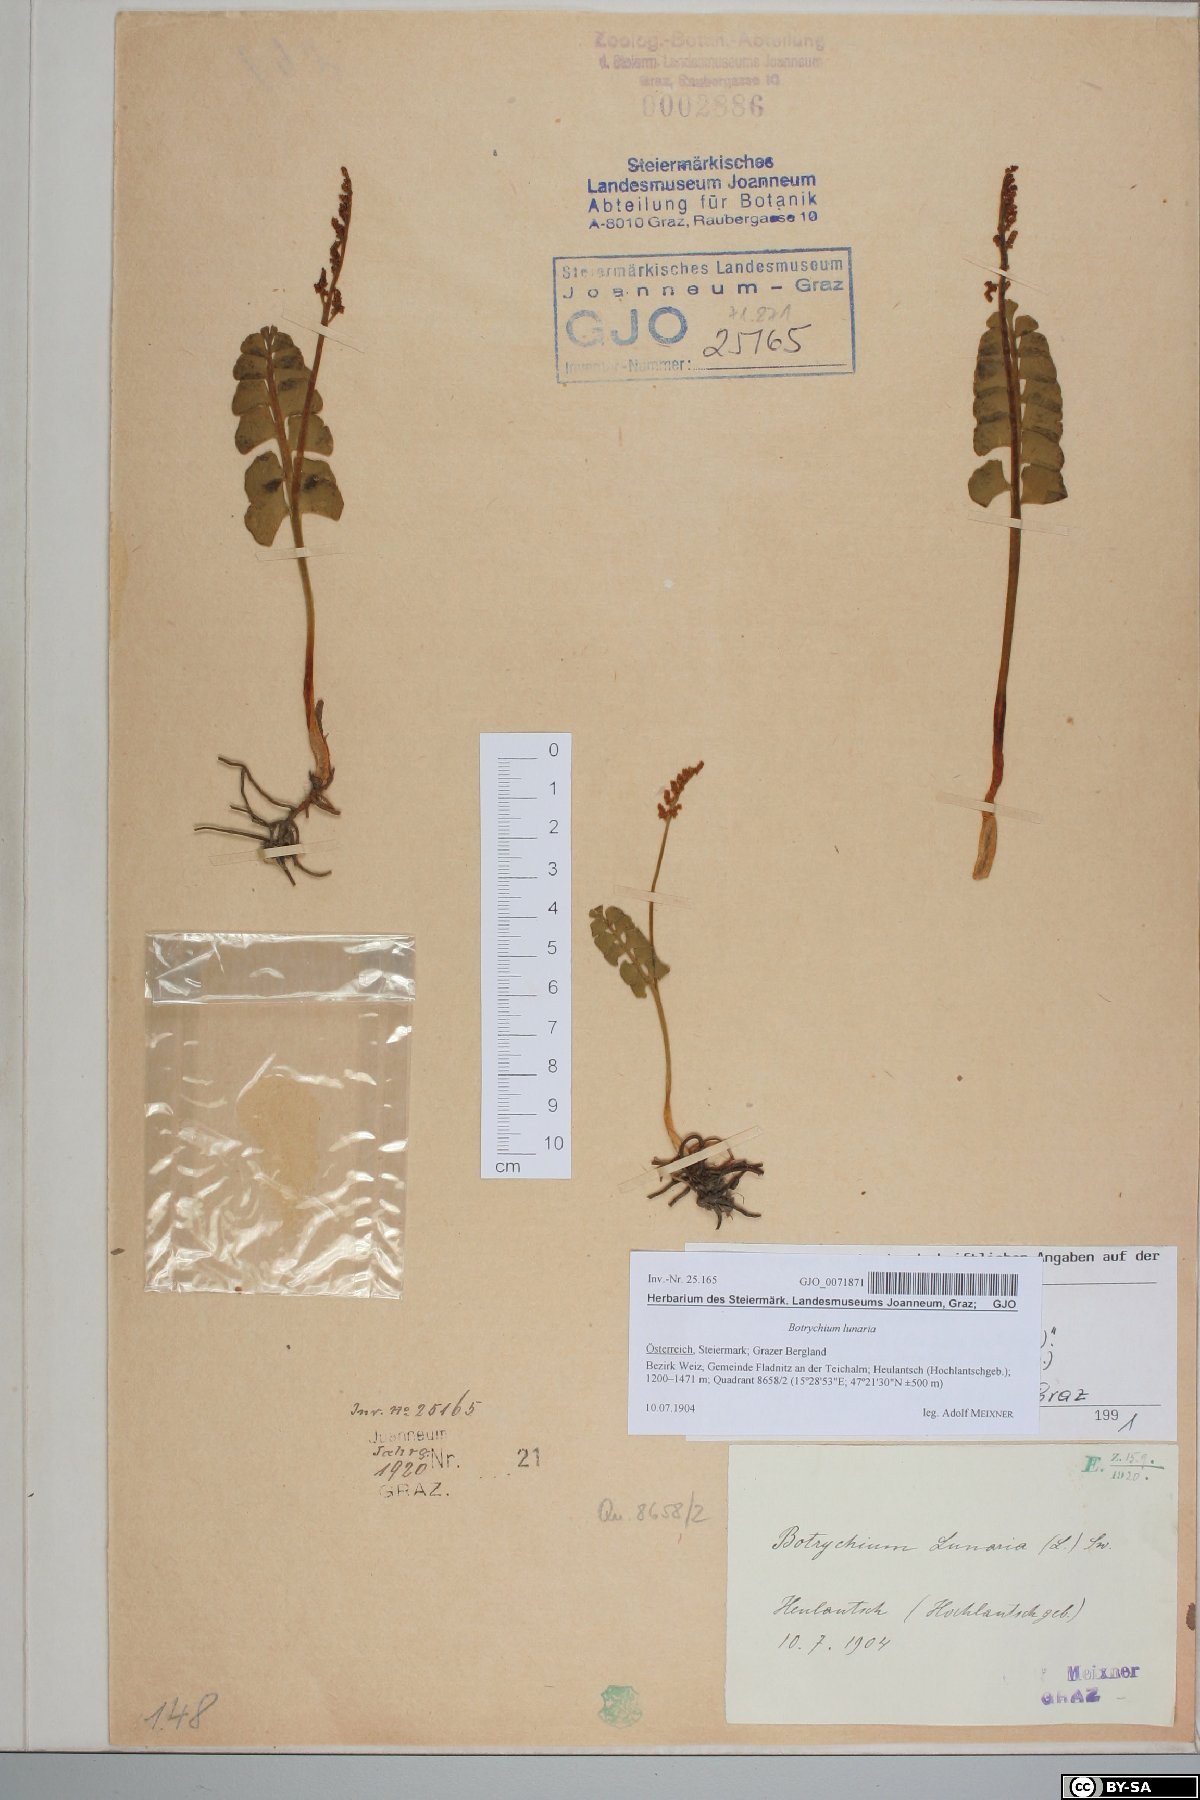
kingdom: Plantae
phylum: Tracheophyta
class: Polypodiopsida
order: Ophioglossales
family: Ophioglossaceae
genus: Botrychium
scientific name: Botrychium lunaria
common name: Moonwort
